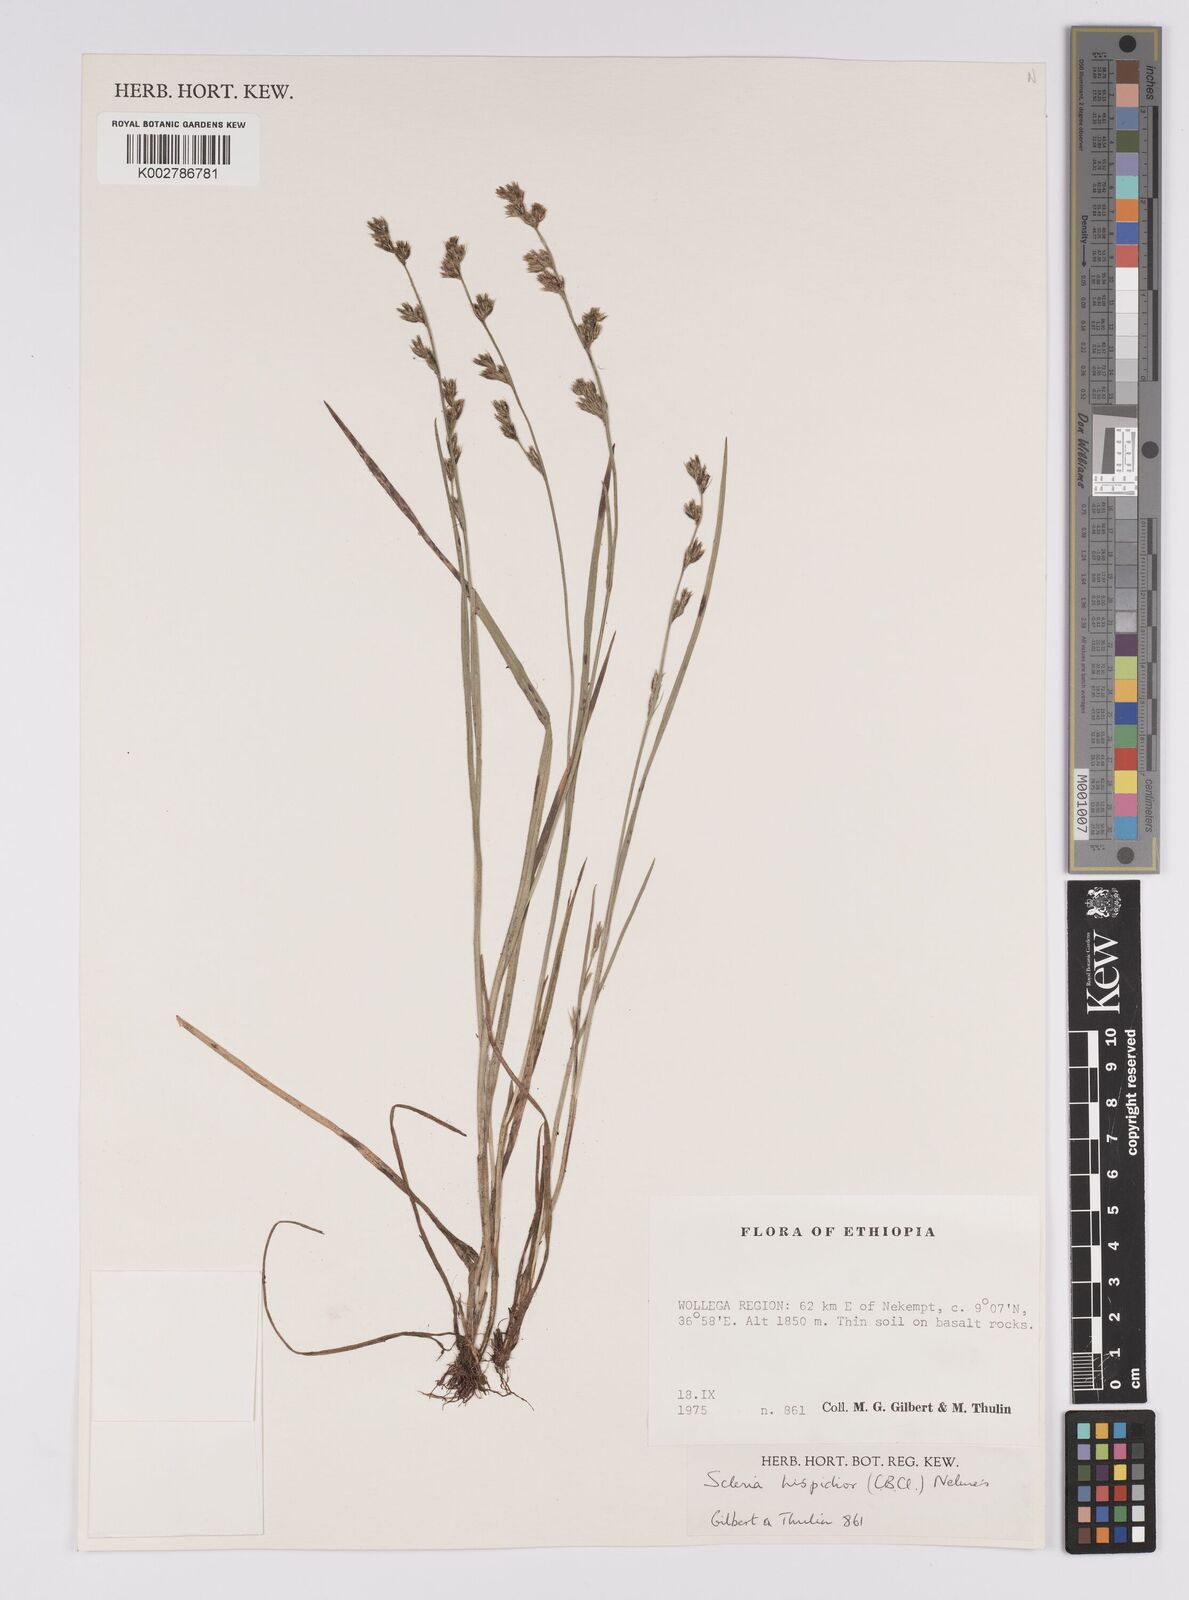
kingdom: Plantae
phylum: Tracheophyta
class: Liliopsida
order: Poales
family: Cyperaceae
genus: Scleria
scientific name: Scleria hispidula
